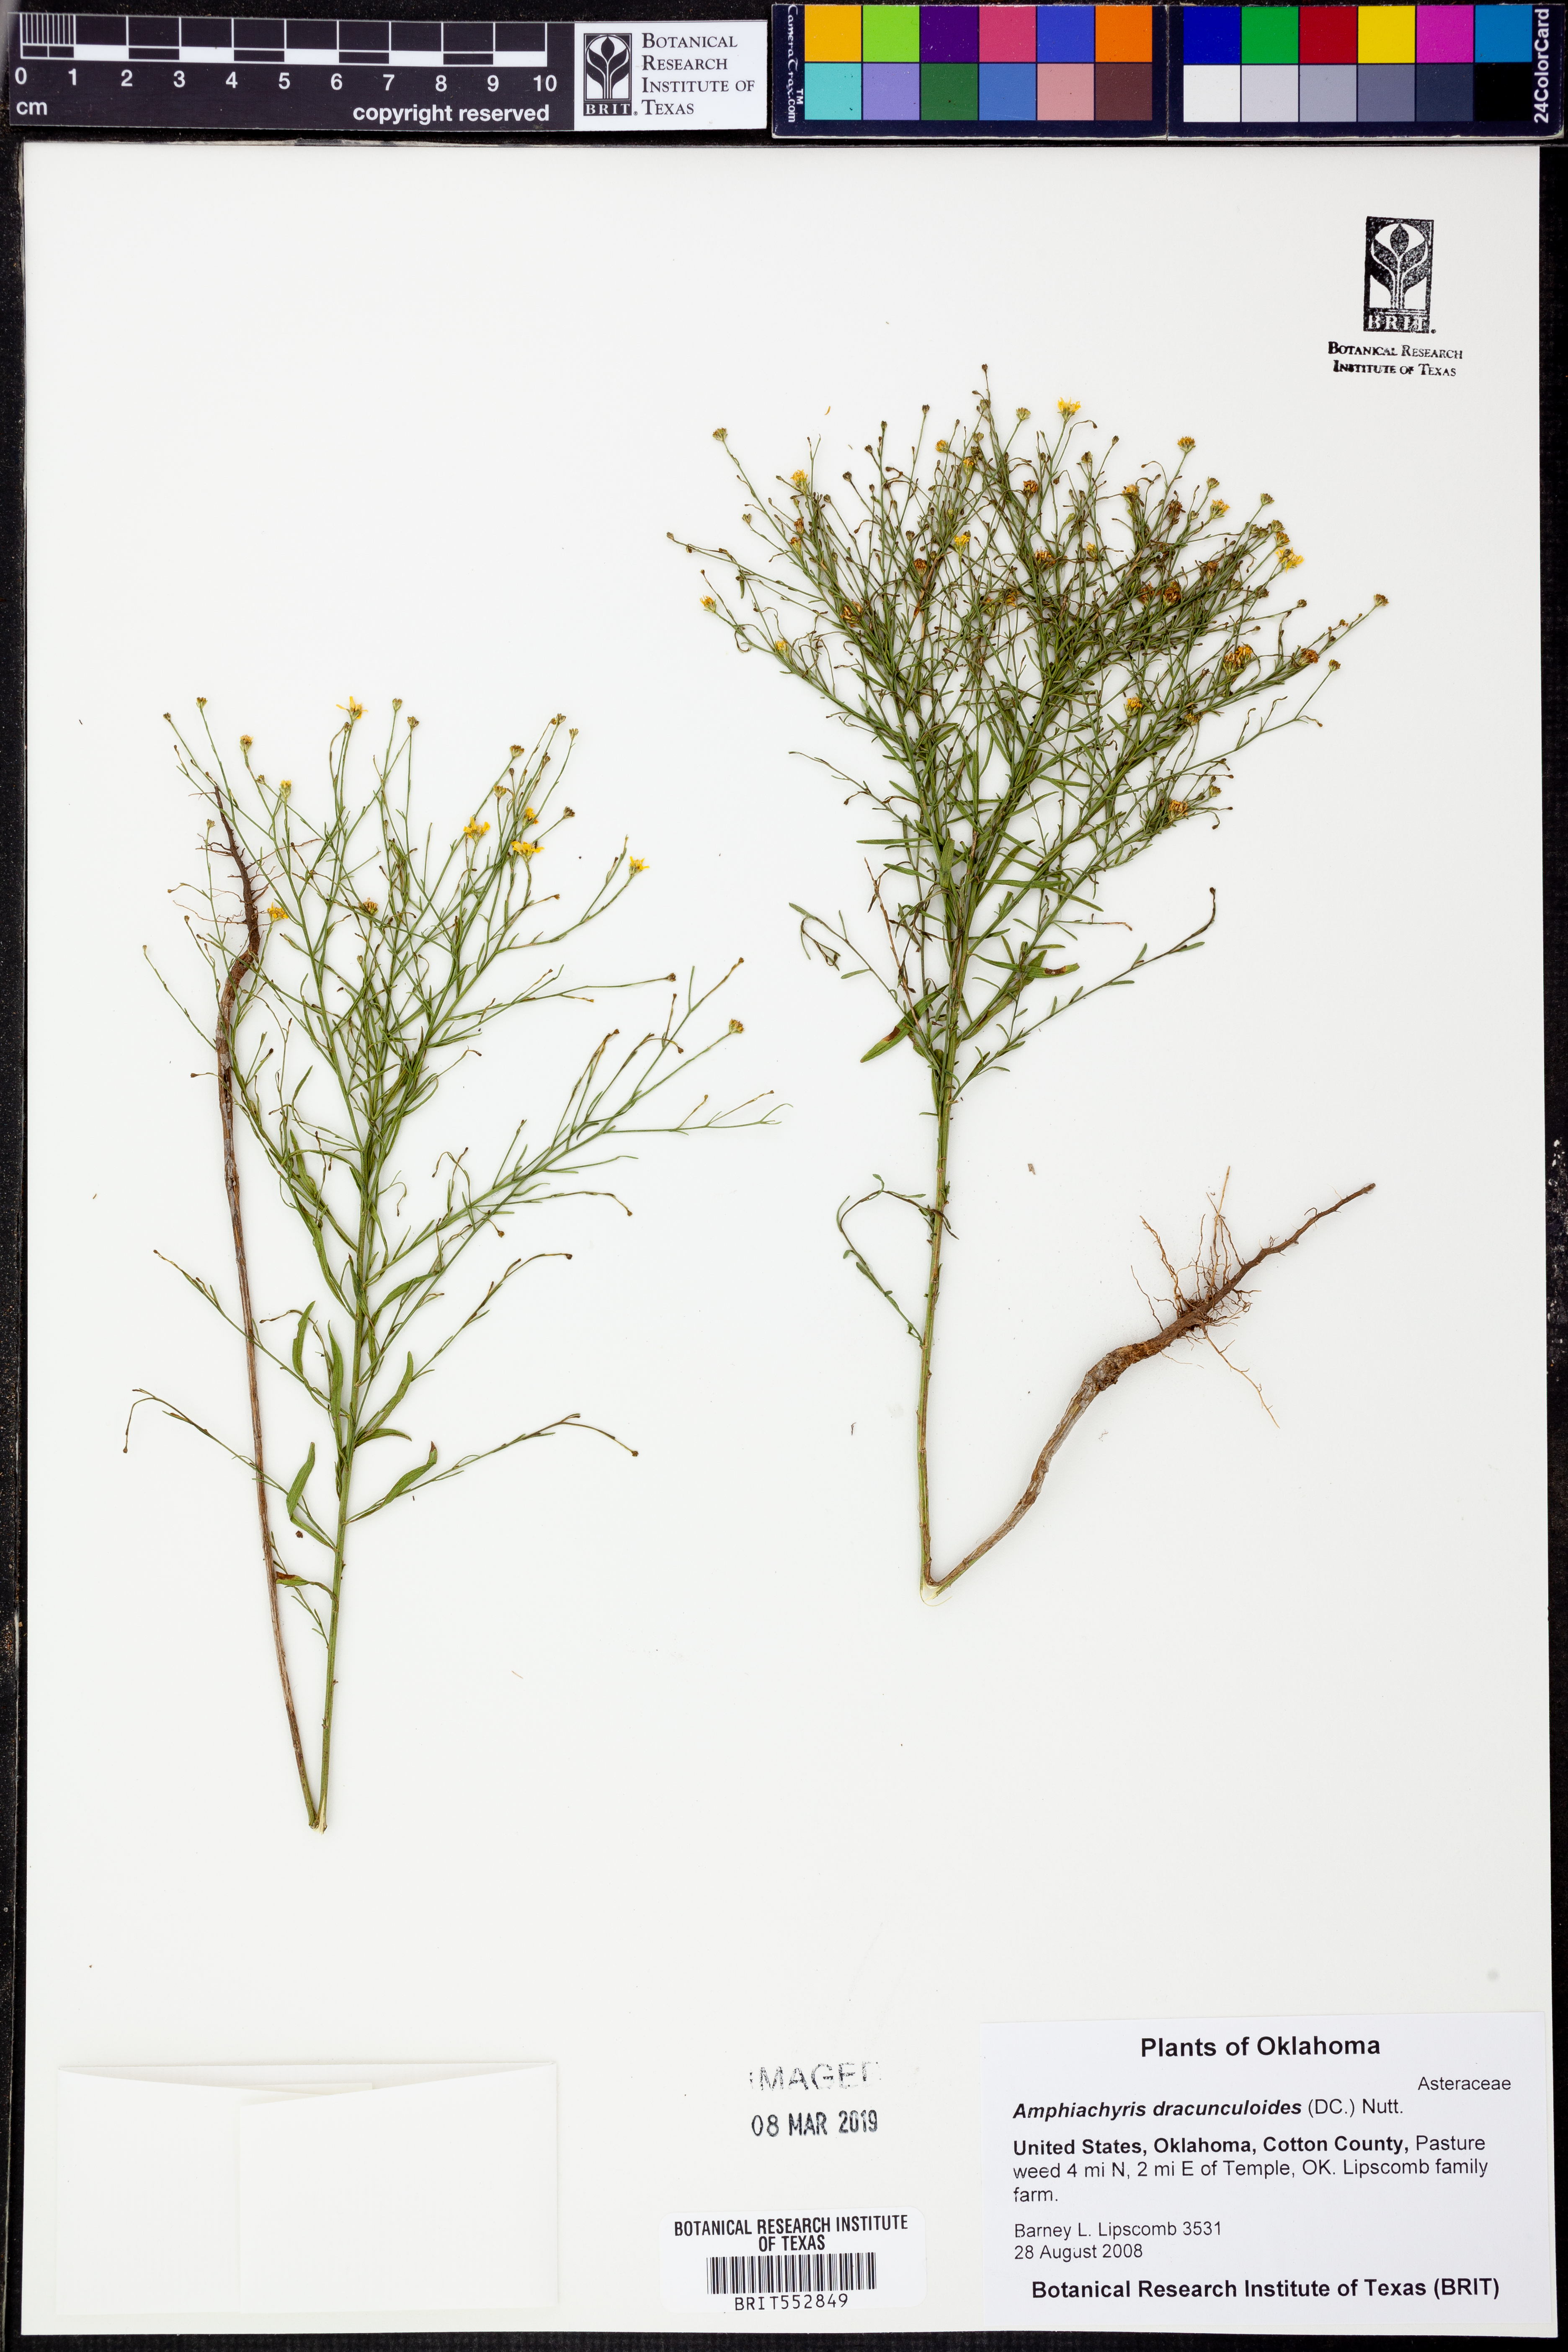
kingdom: Plantae
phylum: Tracheophyta
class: Magnoliopsida
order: Asterales
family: Asteraceae
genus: Amphiachyris
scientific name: Amphiachyris dracunculoides
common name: Broomweed
